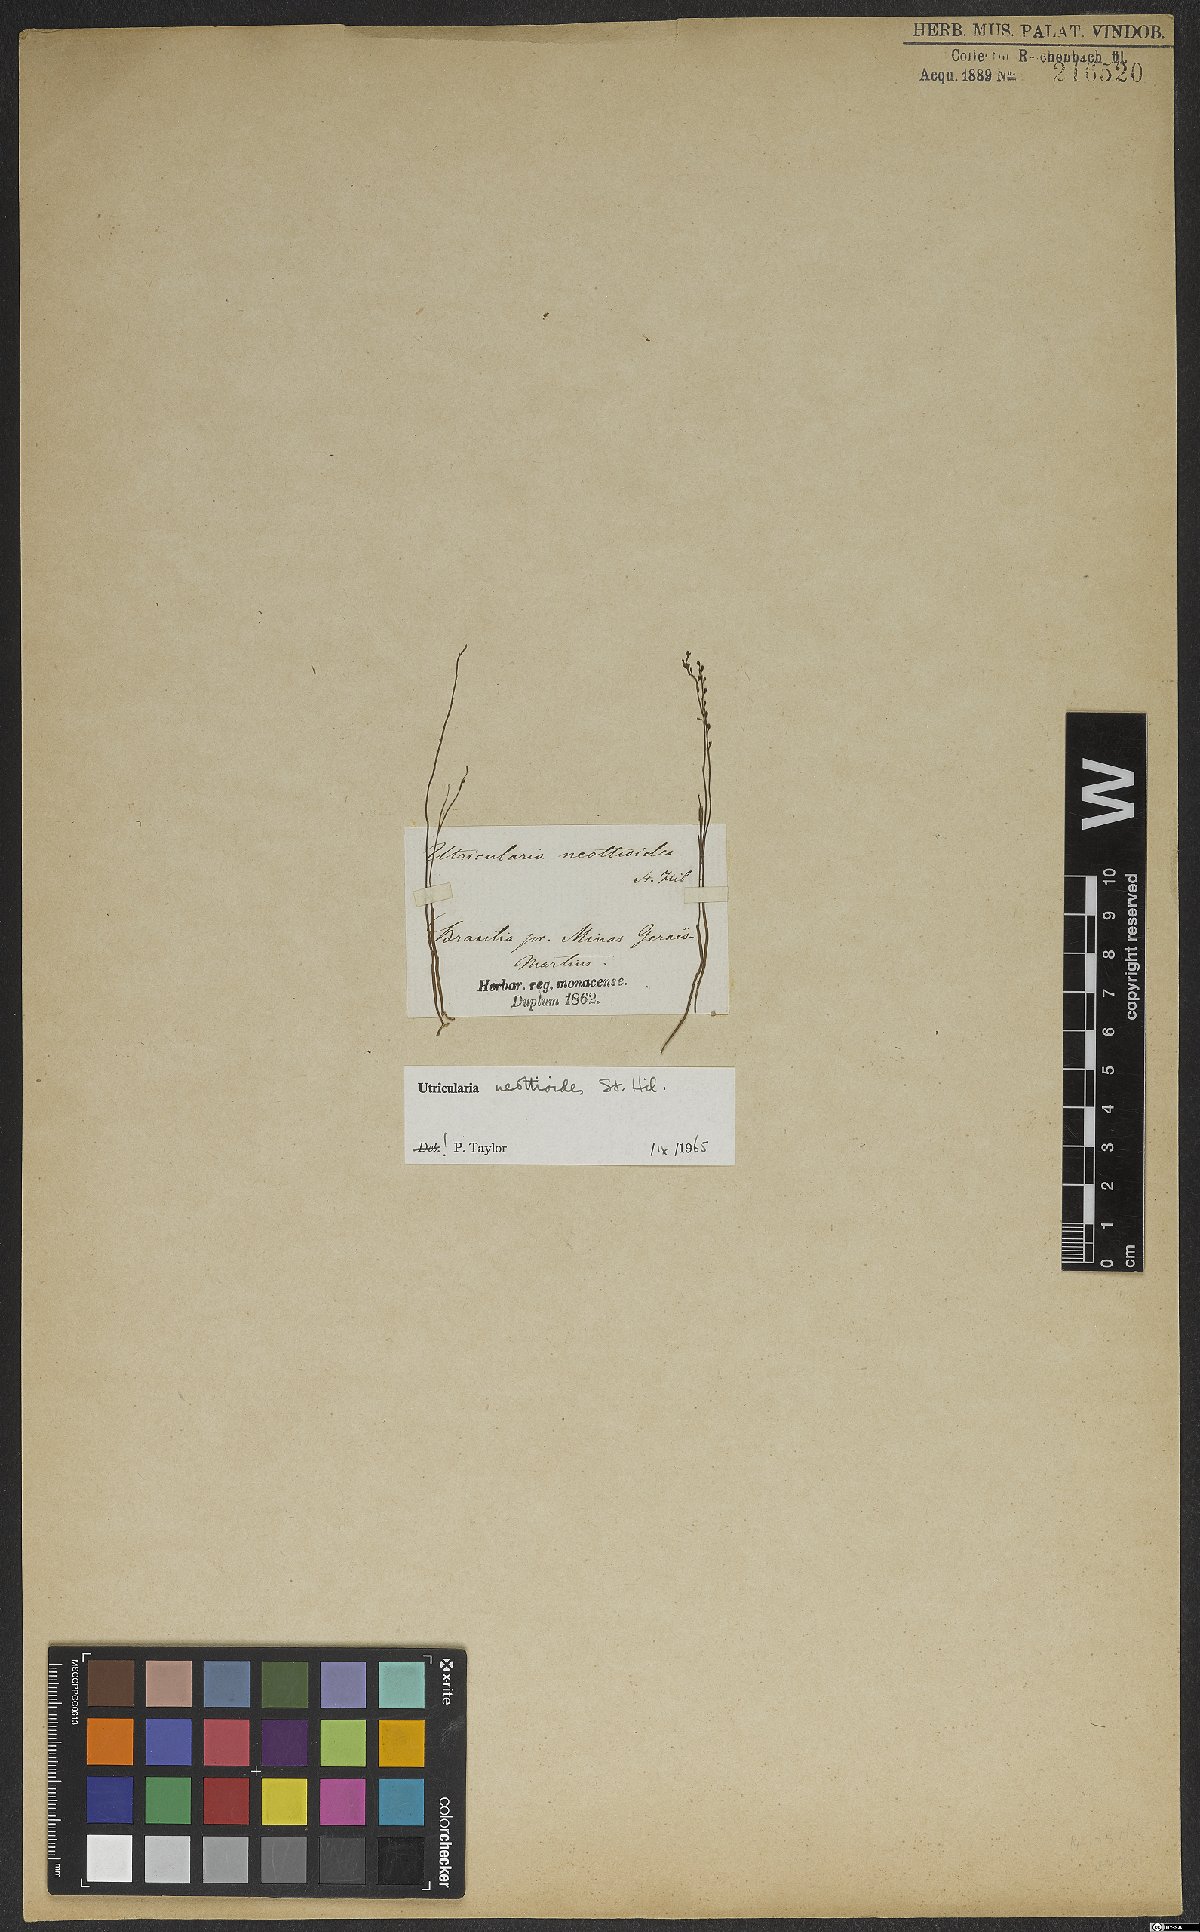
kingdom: Plantae
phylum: Tracheophyta
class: Magnoliopsida
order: Lamiales
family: Lentibulariaceae
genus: Utricularia
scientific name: Utricularia neottioides
